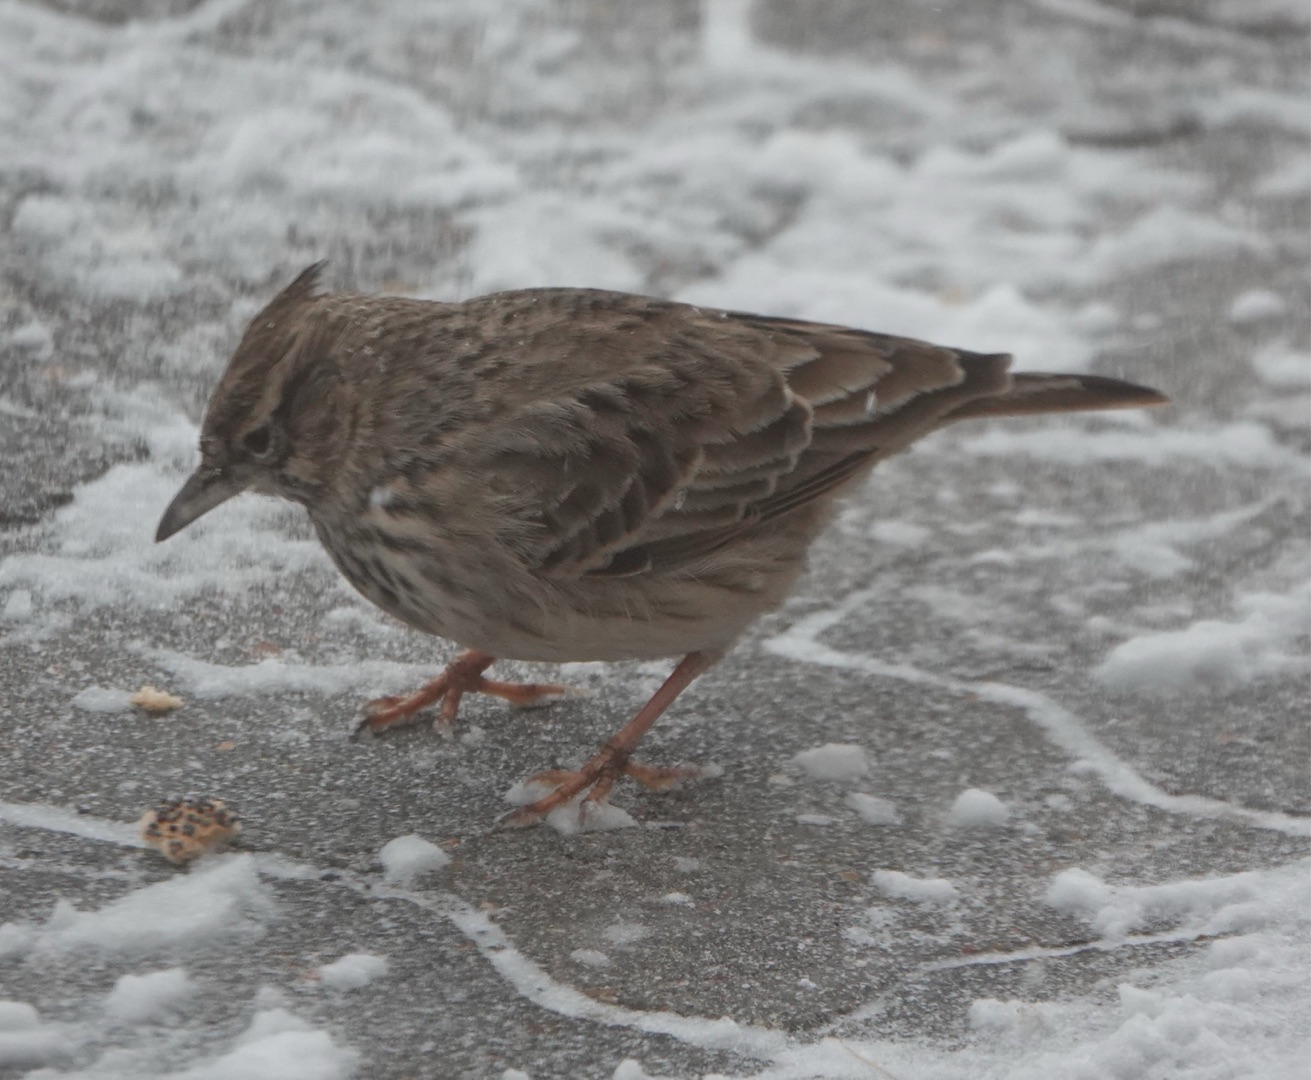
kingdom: Animalia
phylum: Chordata
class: Aves
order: Passeriformes
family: Alaudidae
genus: Galerida
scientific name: Galerida cristata
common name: Toplærke
